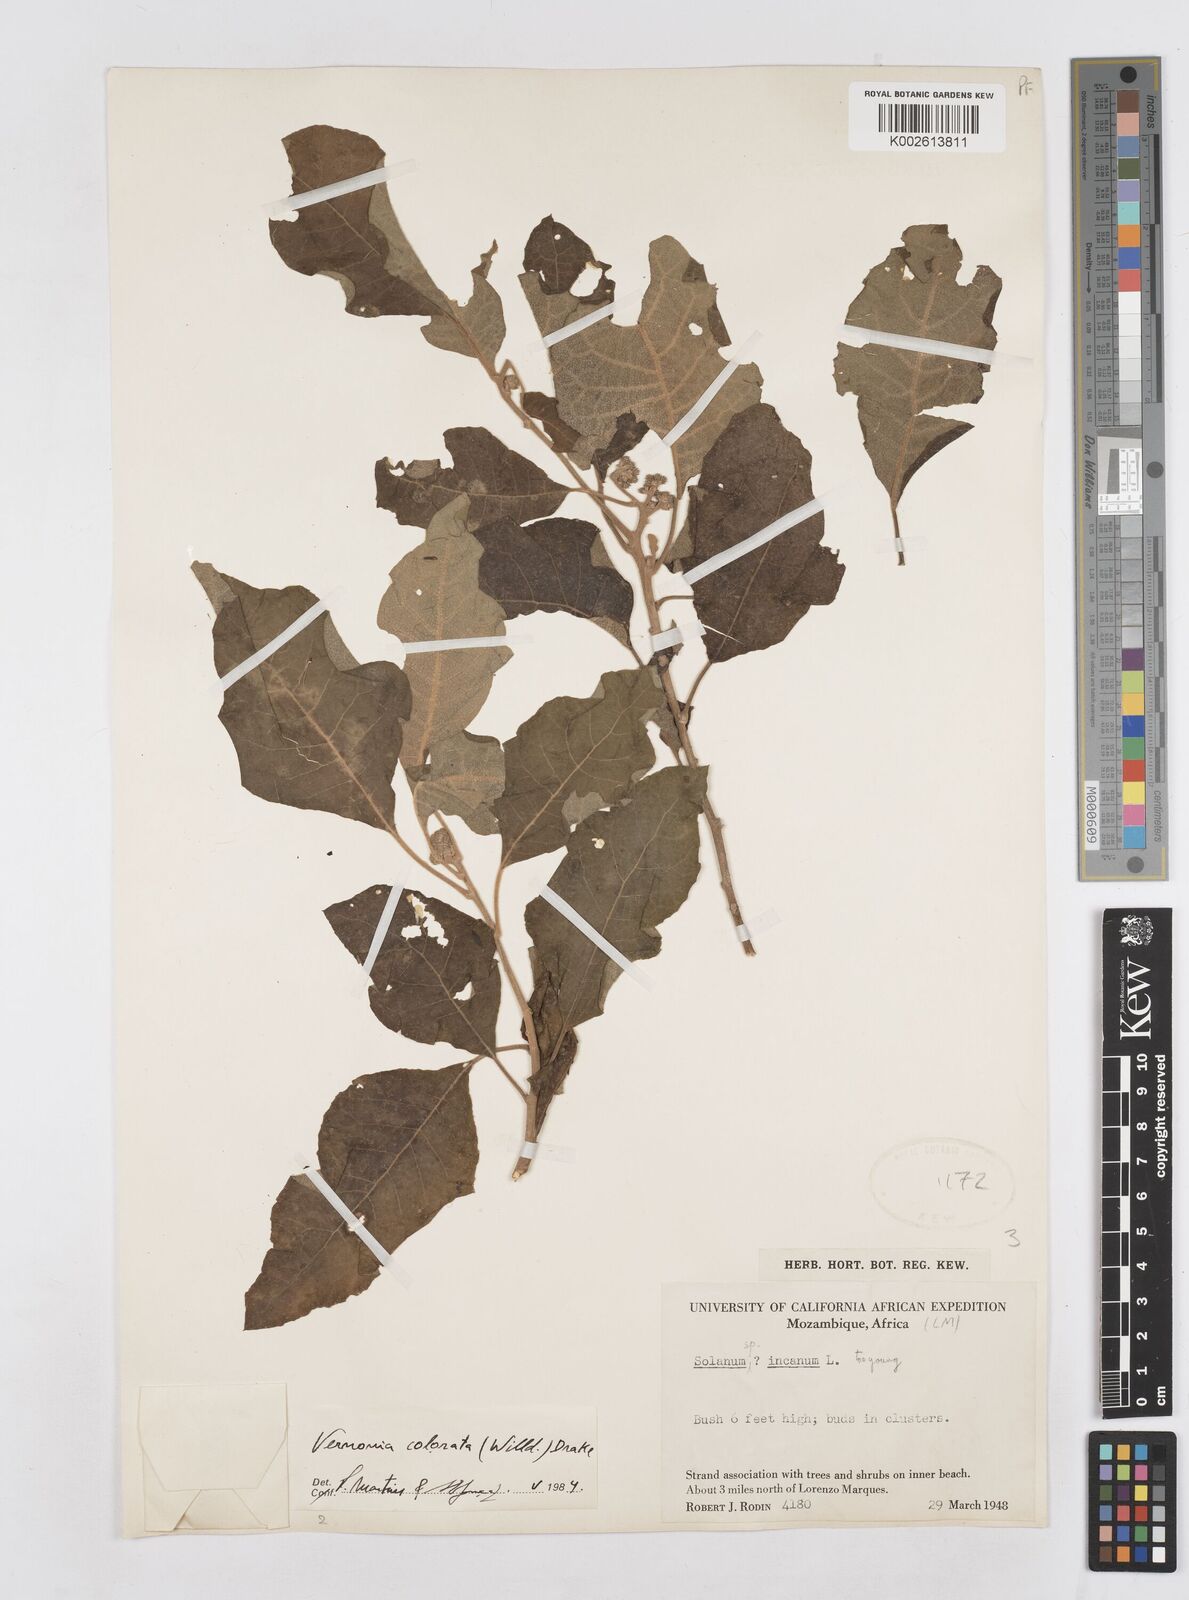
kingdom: Plantae
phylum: Tracheophyta
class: Magnoliopsida
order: Asterales
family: Asteraceae
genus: Vernonia
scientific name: Vernonia colorata
